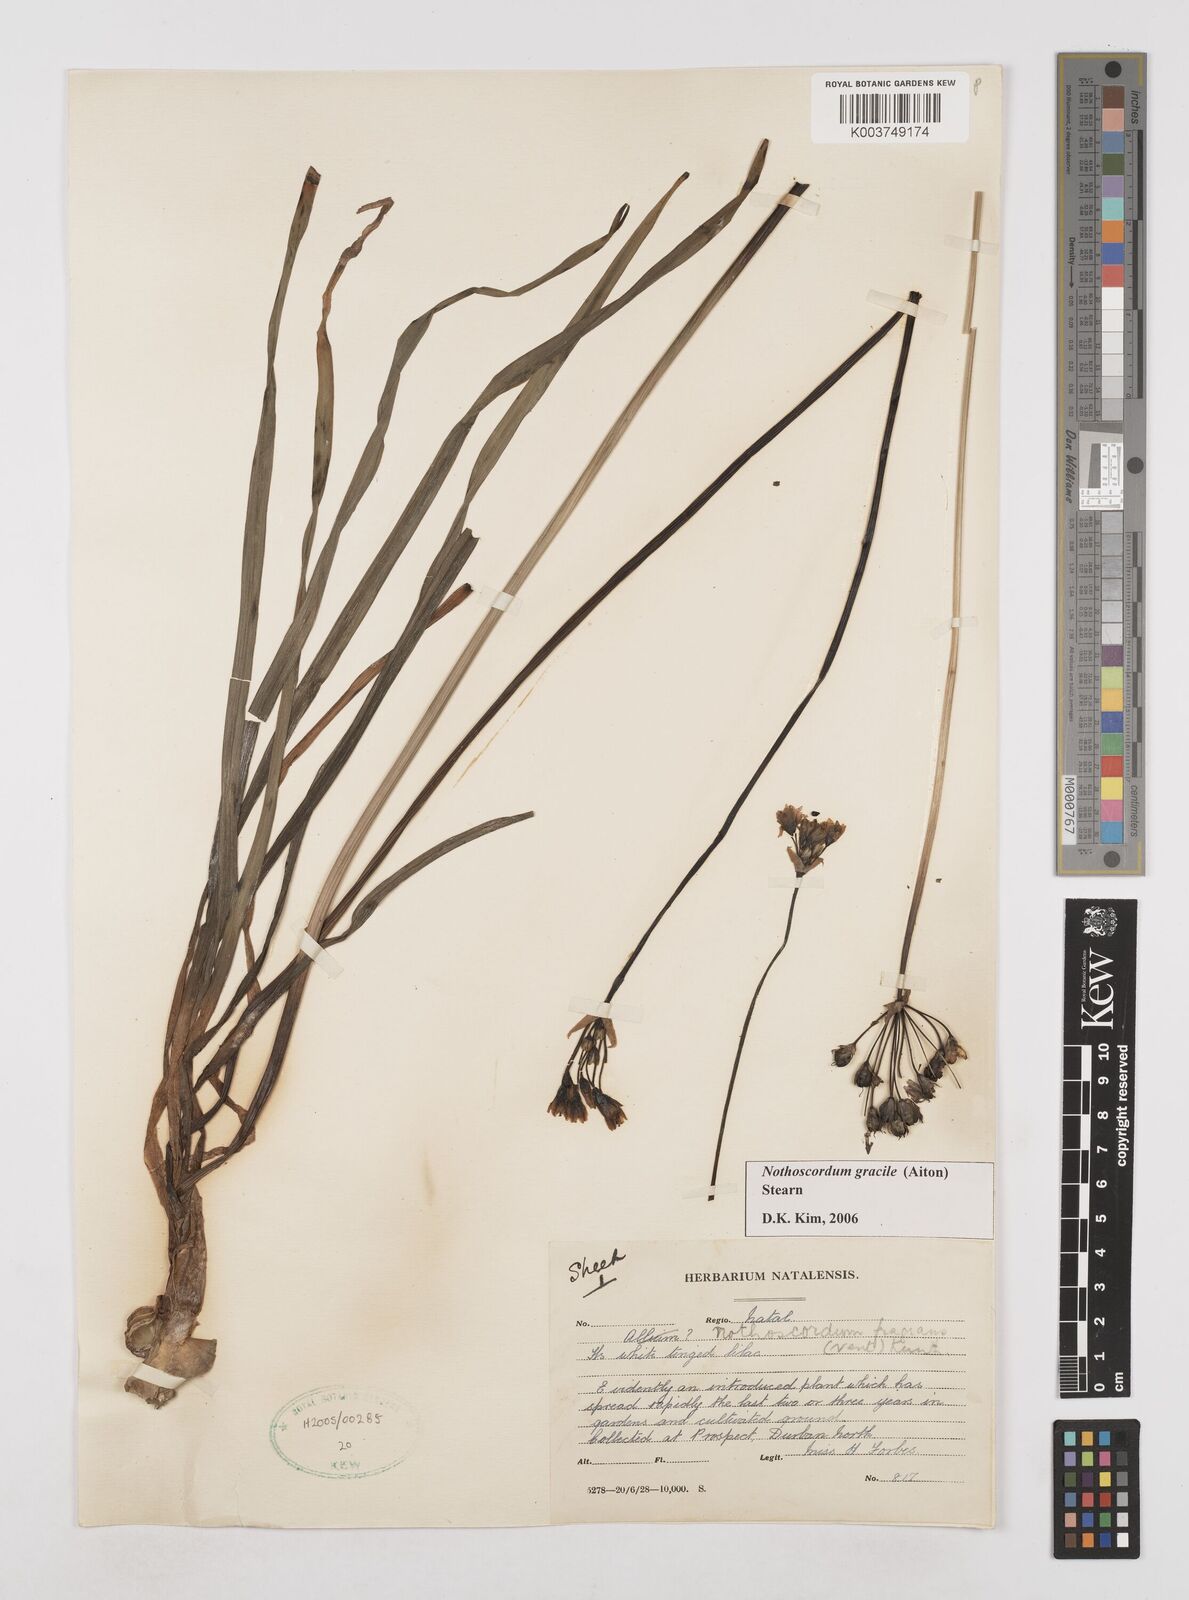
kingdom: Plantae
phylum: Tracheophyta
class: Liliopsida
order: Asparagales
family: Amaryllidaceae
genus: Nothoscordum
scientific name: Nothoscordum gracile
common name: Slender false garlic
